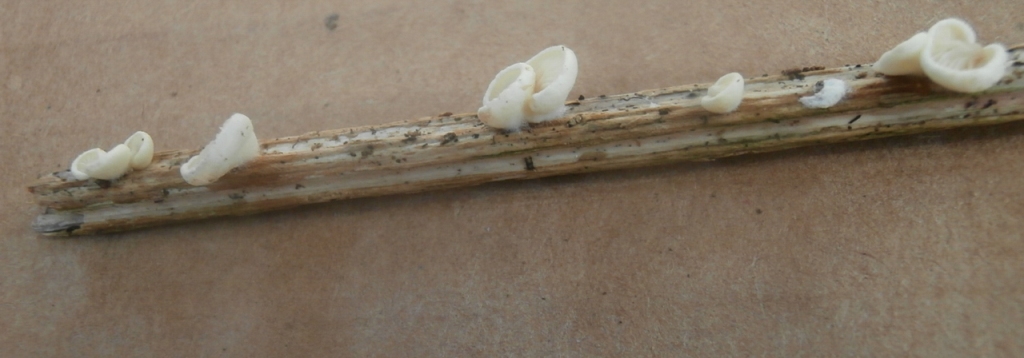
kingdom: Fungi
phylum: Basidiomycota
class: Agaricomycetes
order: Agaricales
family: Crepidotaceae
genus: Crepidotus
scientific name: Crepidotus luteolus
